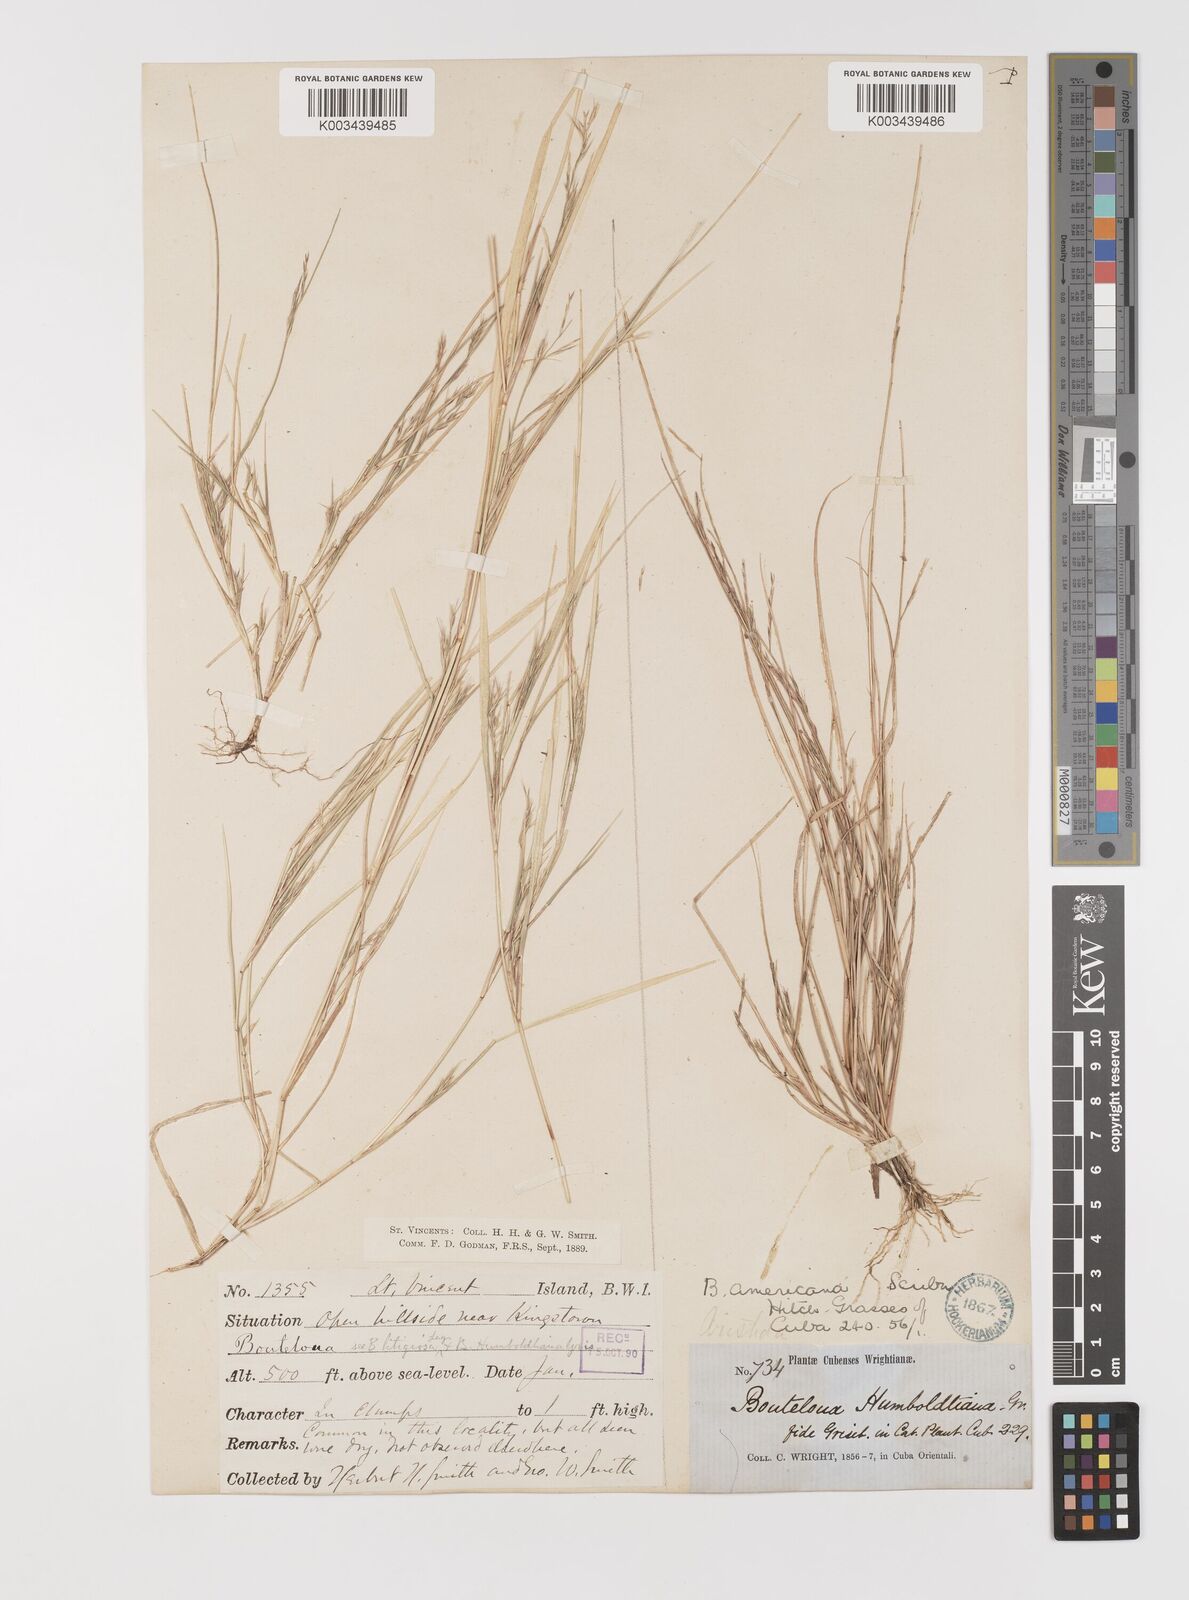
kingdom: Plantae
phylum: Tracheophyta
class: Liliopsida
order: Poales
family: Poaceae
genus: Bouteloua
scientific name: Bouteloua americana
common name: Mule grass
